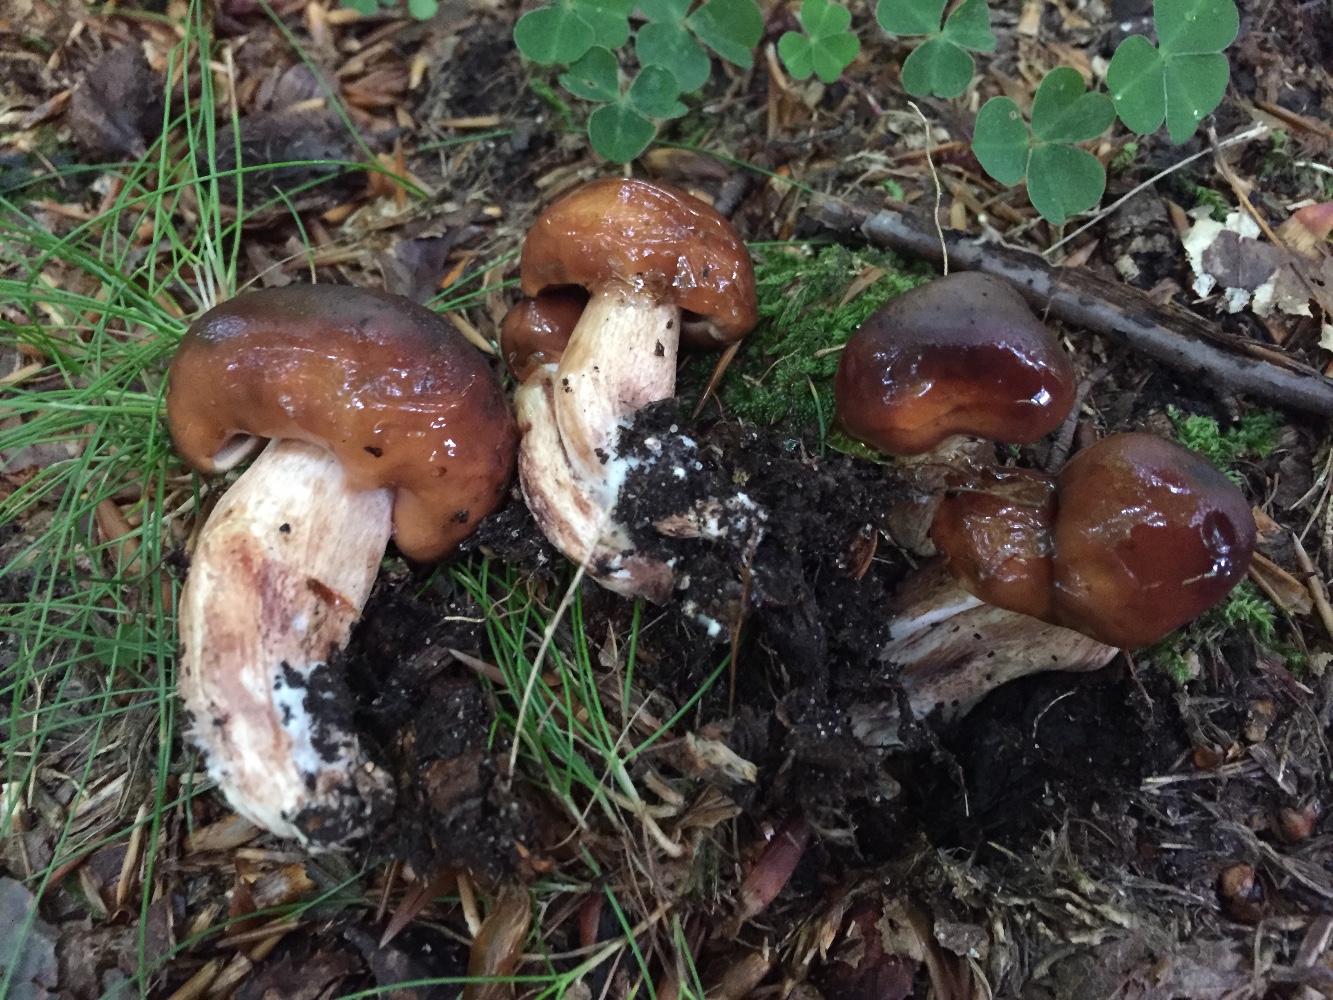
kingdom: Fungi
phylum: Basidiomycota
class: Agaricomycetes
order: Agaricales
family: Tricholomataceae
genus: Tricholoma
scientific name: Tricholoma ustale
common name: sveden ridderhat
